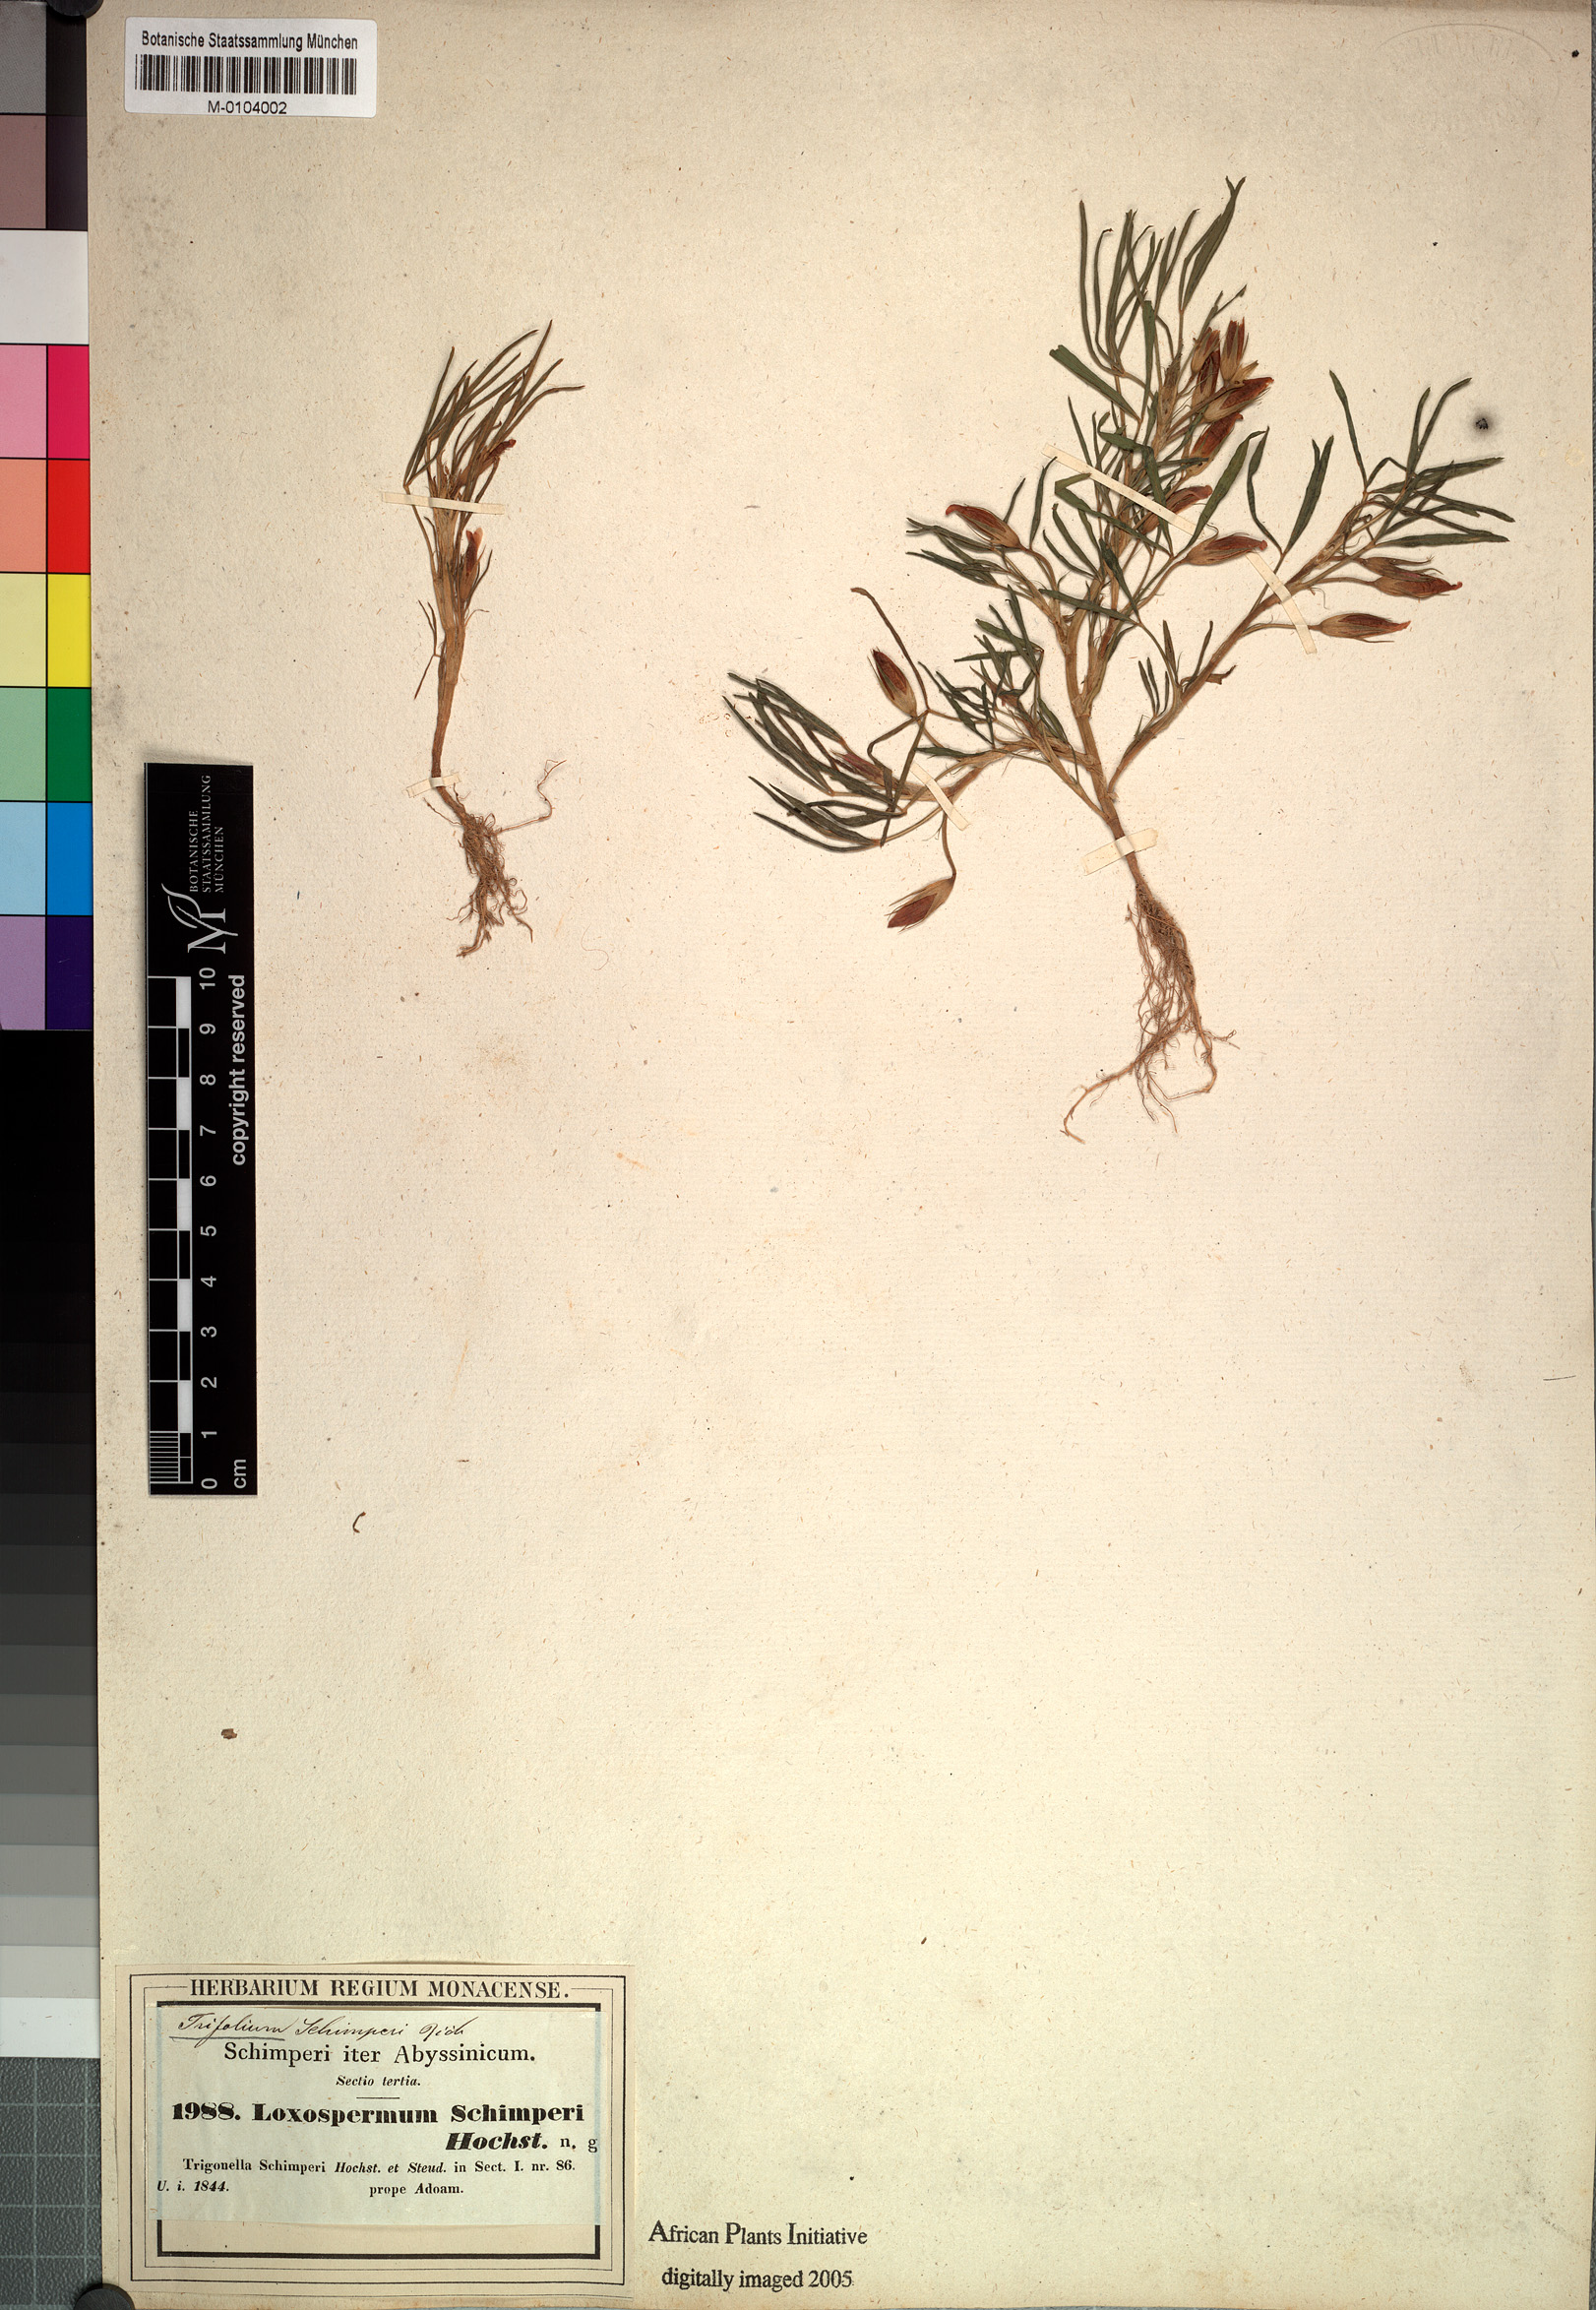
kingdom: Plantae
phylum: Tracheophyta
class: Magnoliopsida
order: Fabales
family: Fabaceae
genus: Trifolium
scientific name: Trifolium schimperi
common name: Schimper's clover
